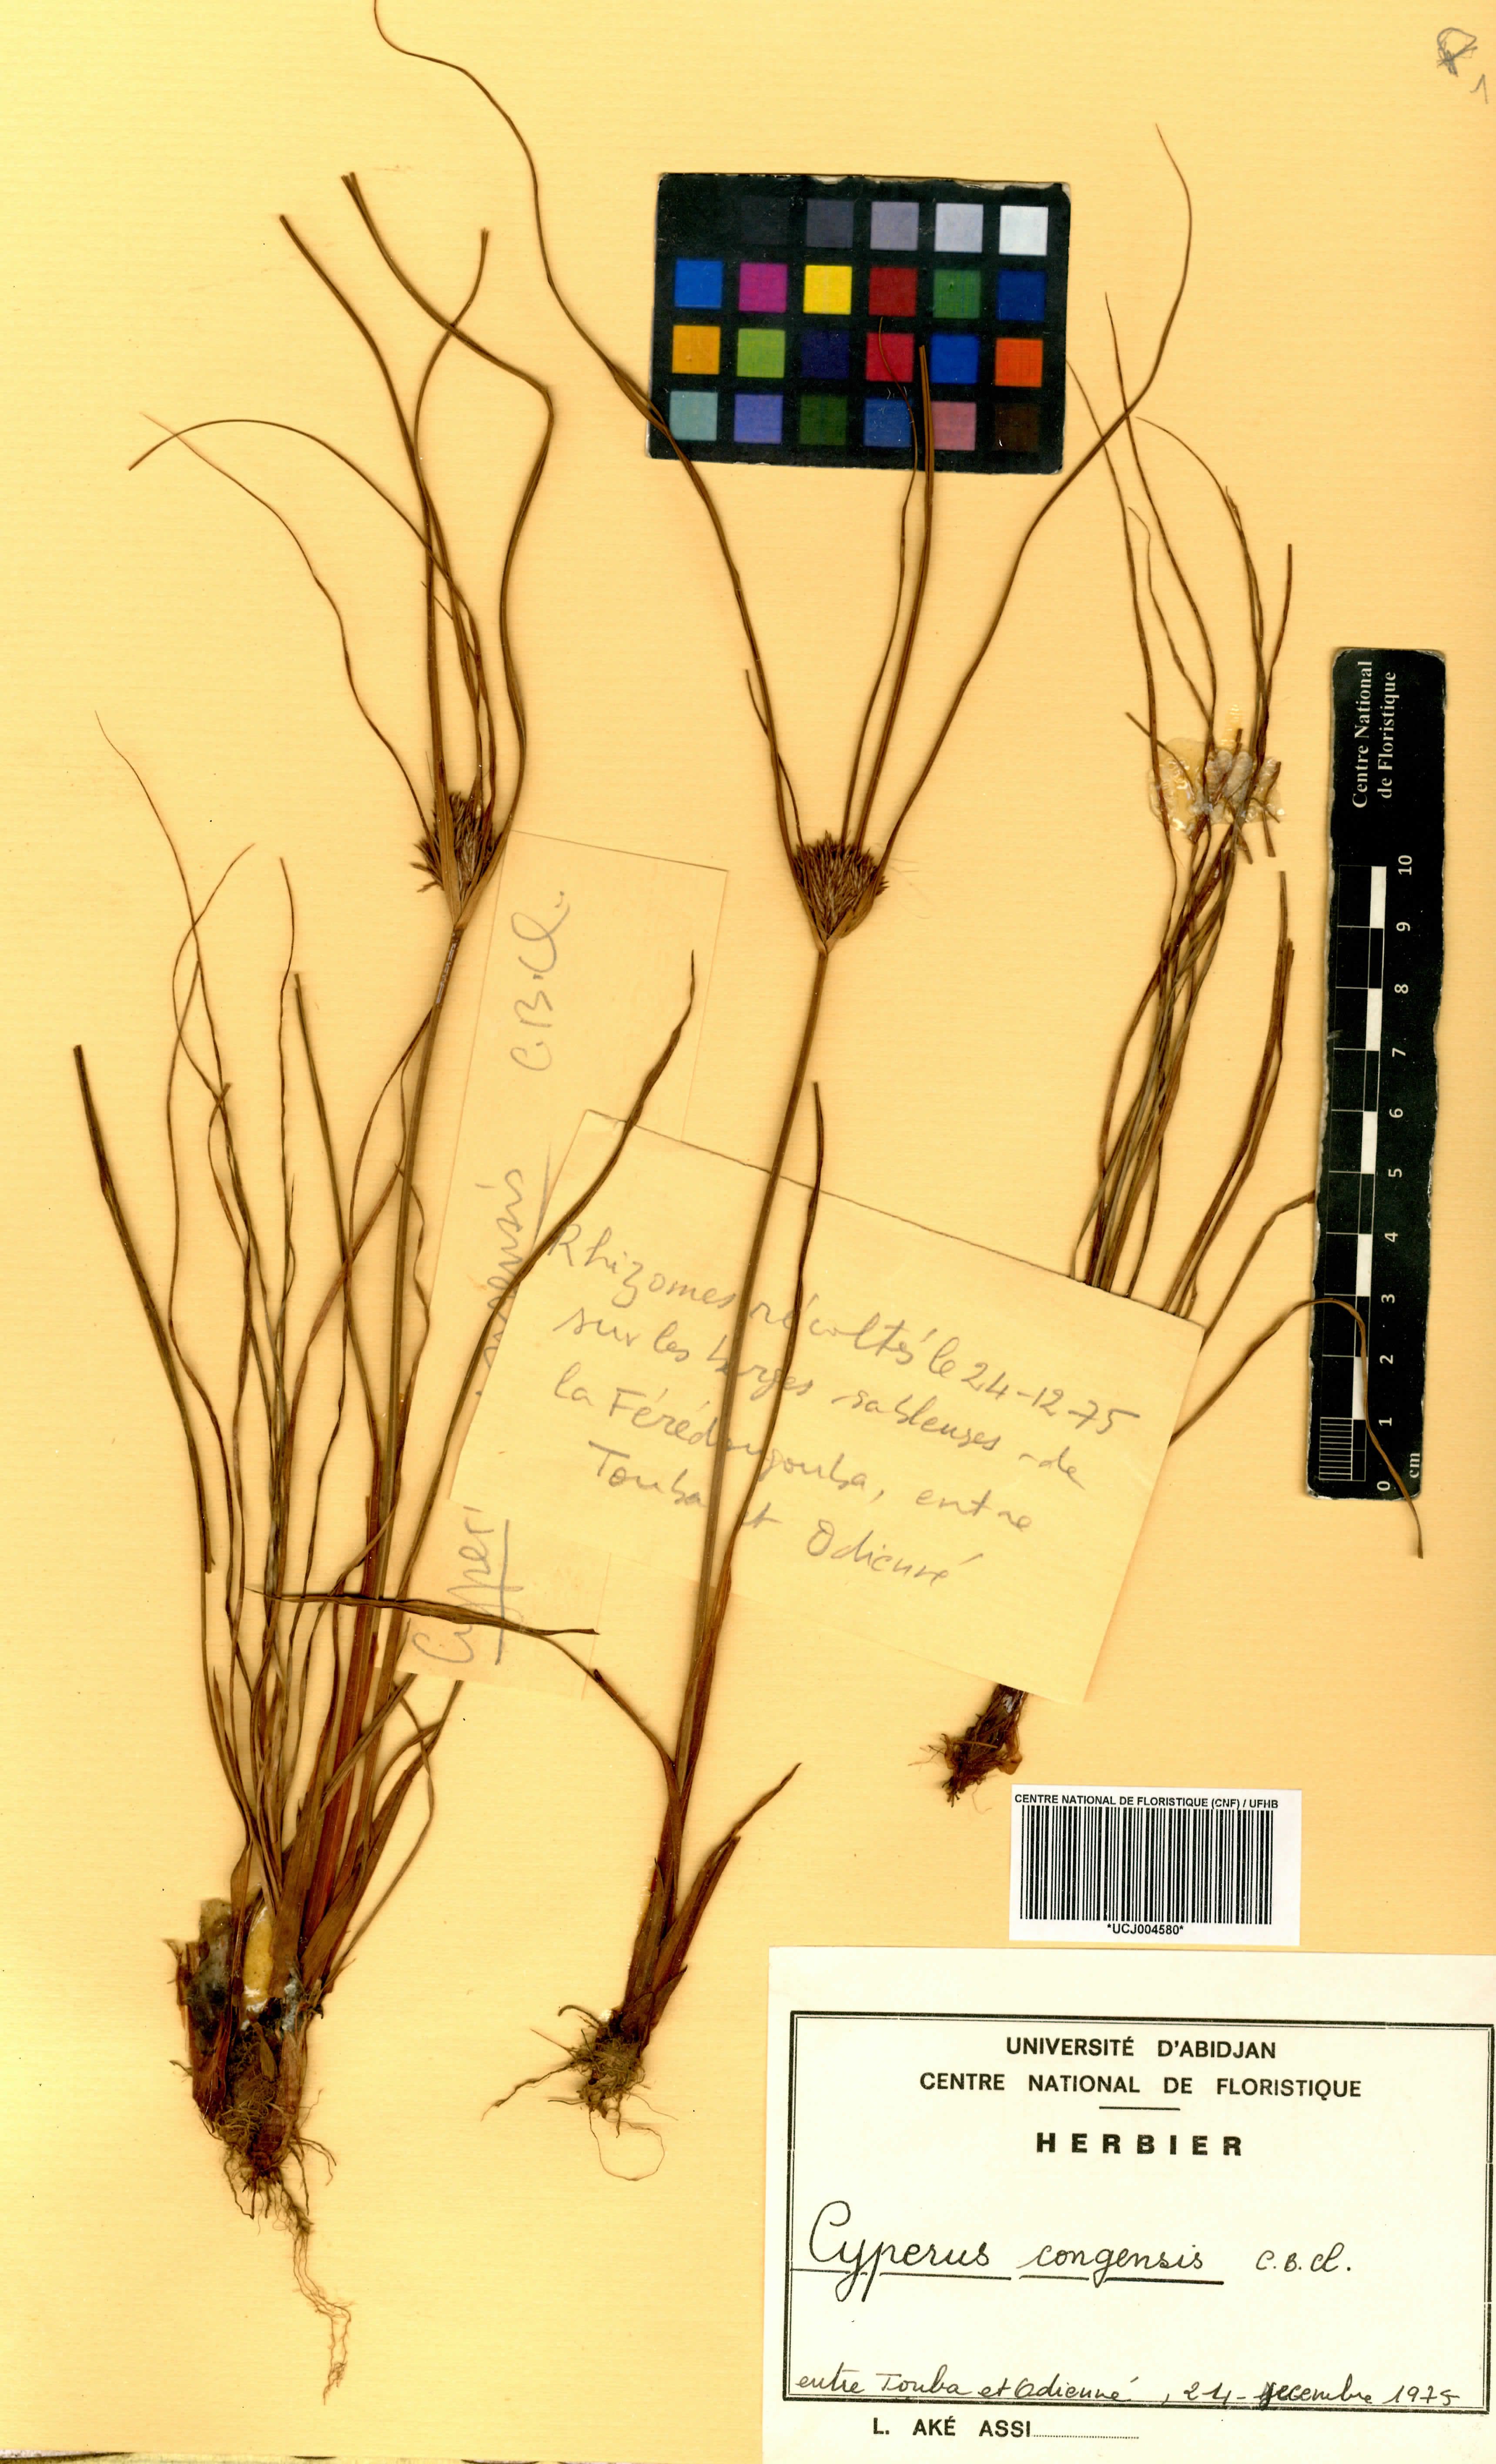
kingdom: Plantae
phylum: Tracheophyta
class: Liliopsida
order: Poales
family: Cyperaceae
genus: Cyperus
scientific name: Cyperus congensis
